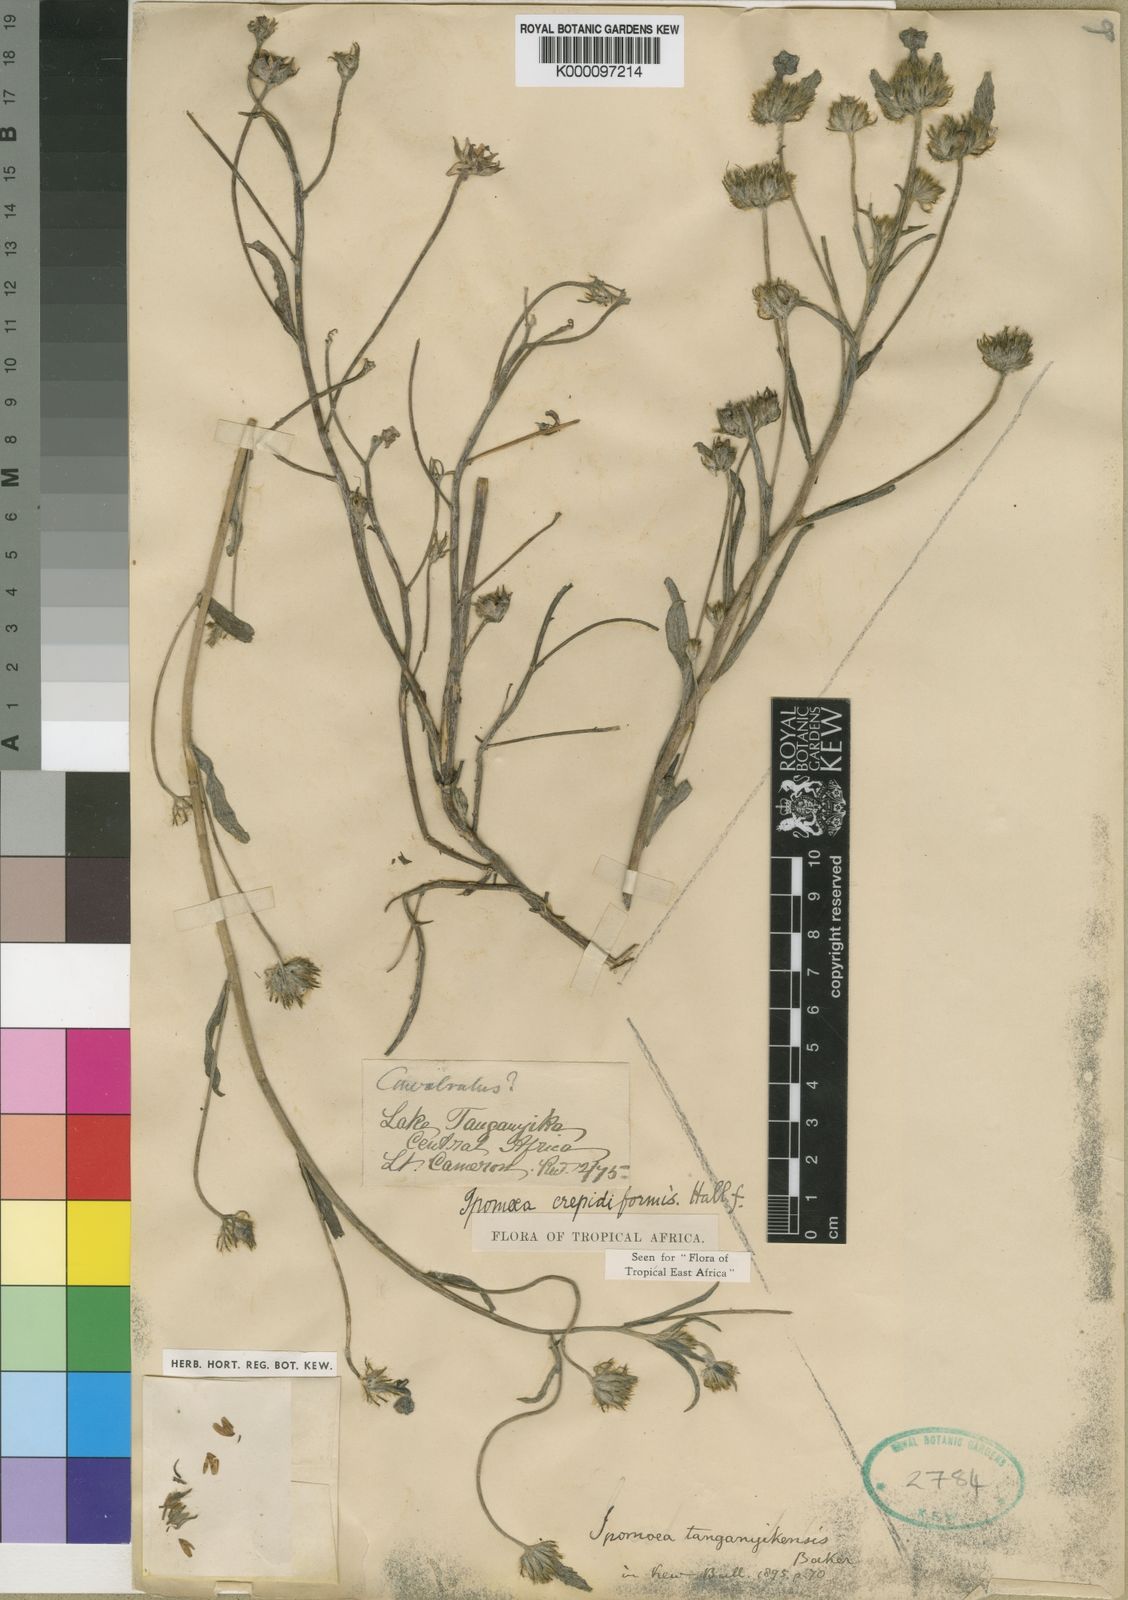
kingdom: Plantae
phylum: Tracheophyta
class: Magnoliopsida
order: Solanales
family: Convolvulaceae
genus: Ipomoea
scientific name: Ipomoea crepidiformis
